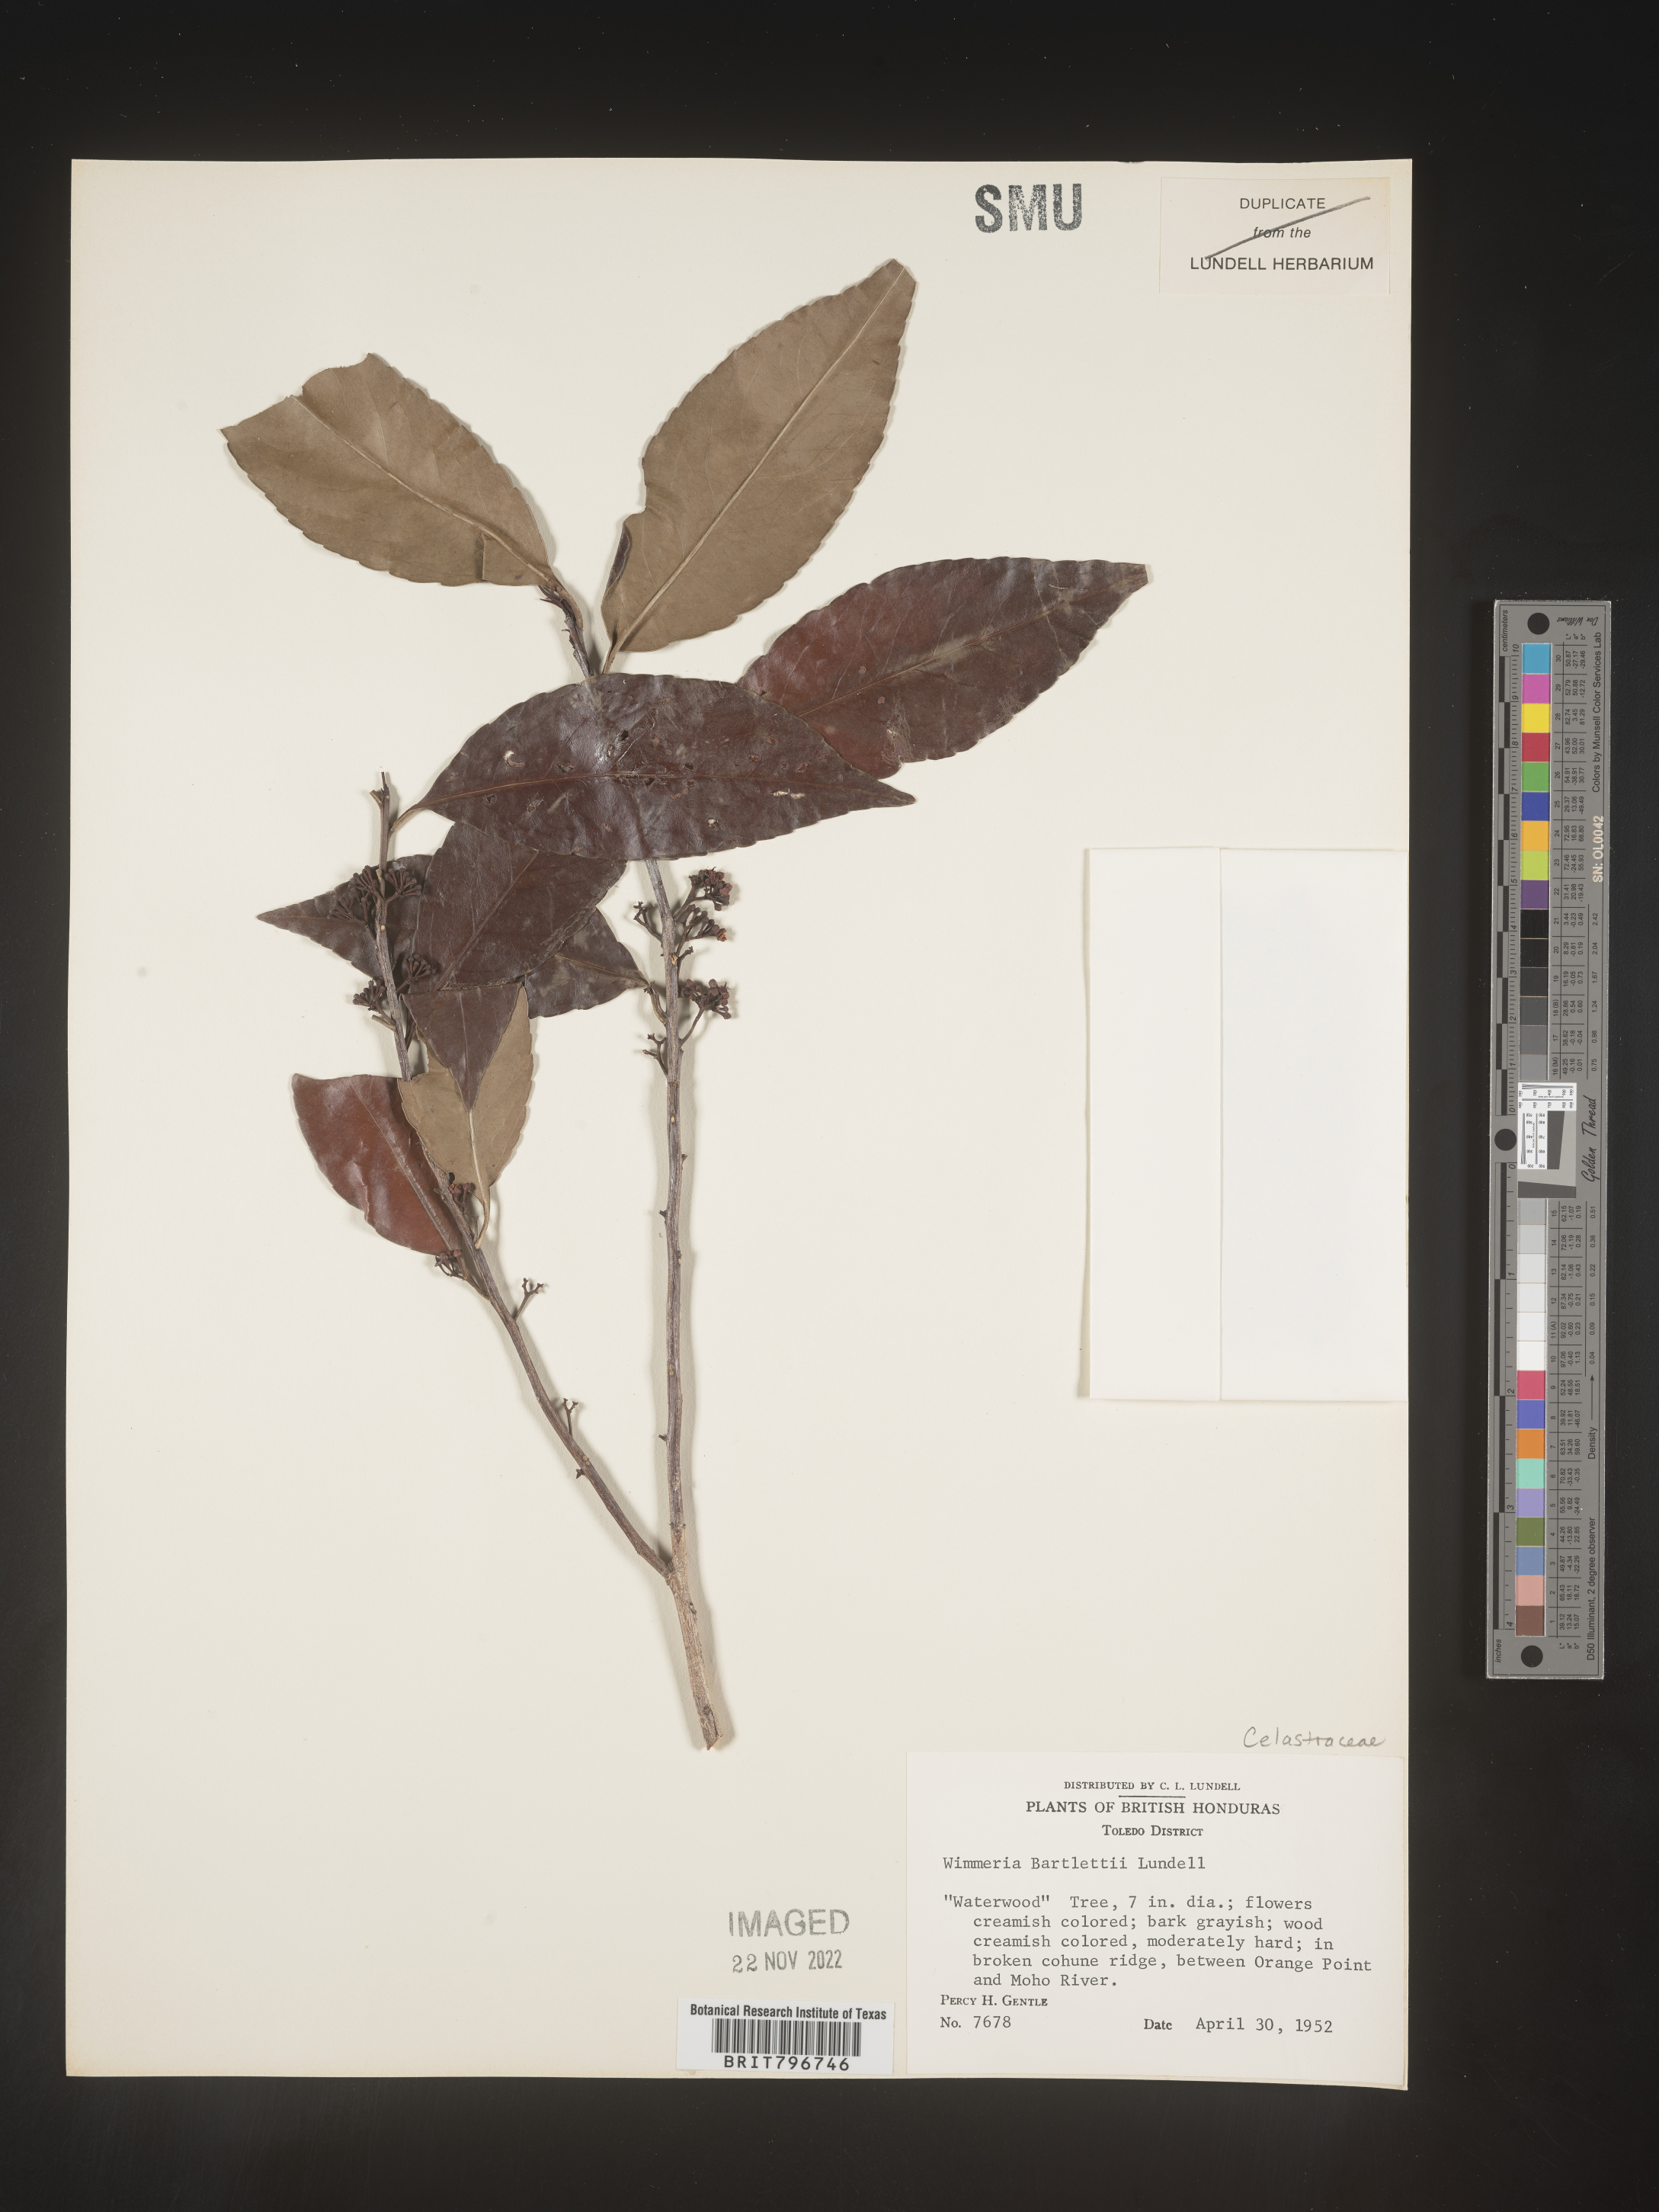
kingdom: Plantae
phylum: Tracheophyta
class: Magnoliopsida
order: Celastrales
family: Celastraceae
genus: Wimmeria
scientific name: Wimmeria
